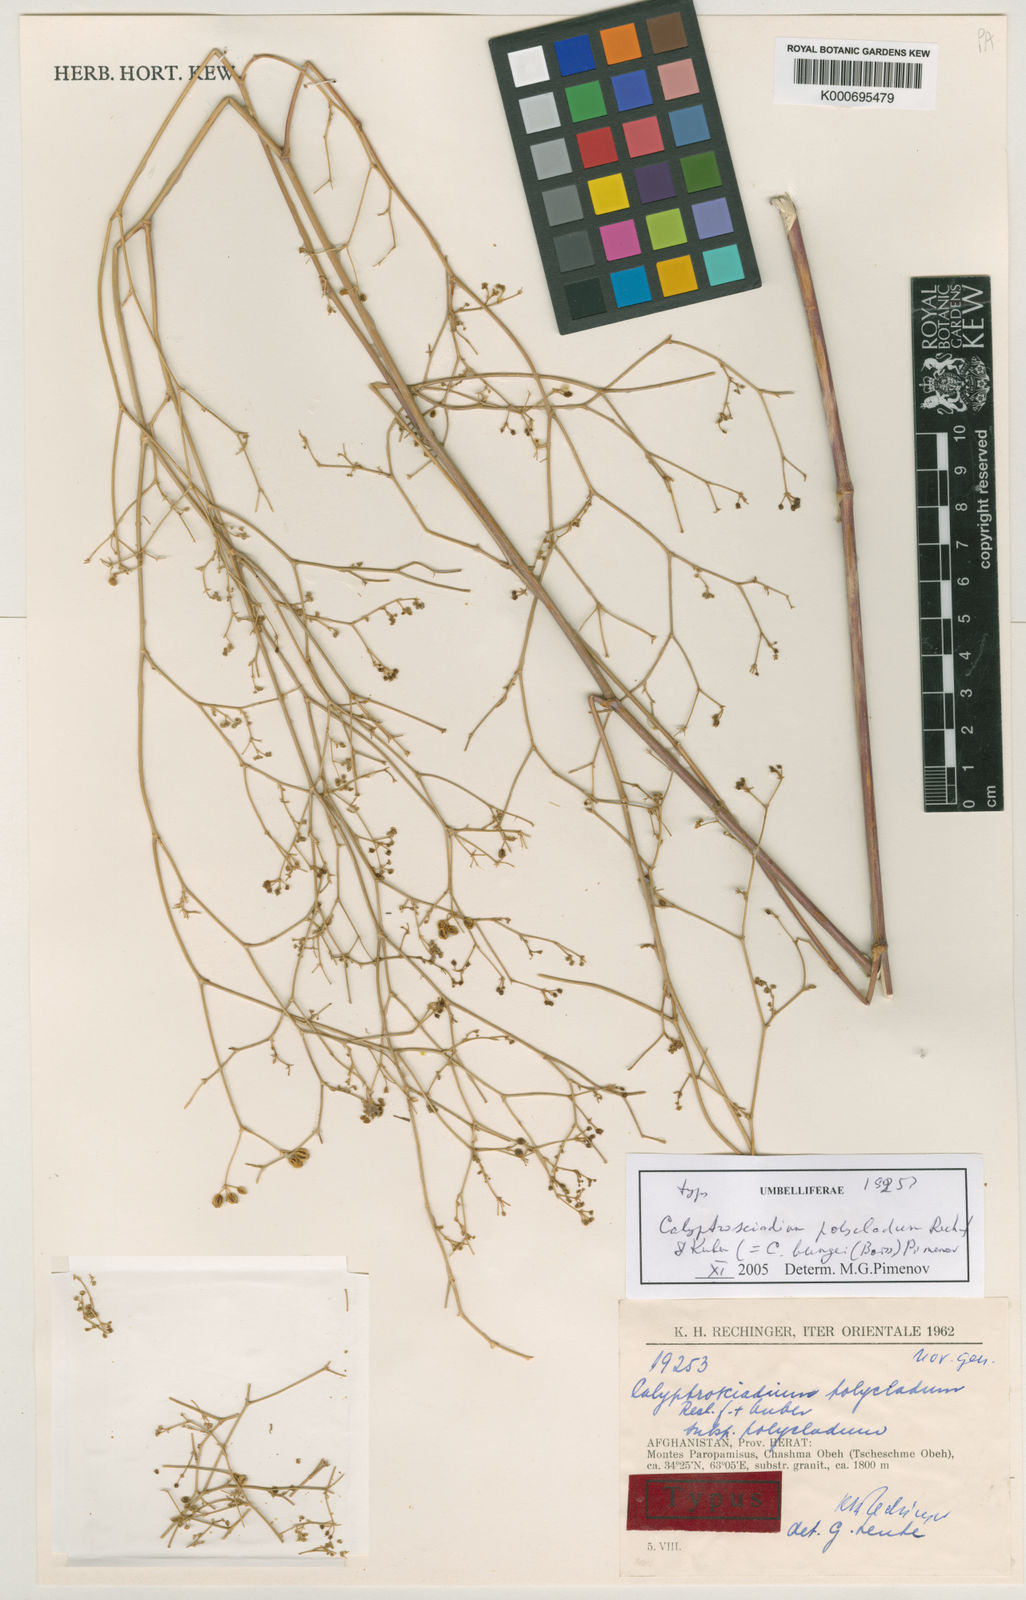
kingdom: Plantae
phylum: Tracheophyta
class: Magnoliopsida
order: Apiales
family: Apiaceae
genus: Calyptrosciadium
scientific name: Calyptrosciadium bungei
